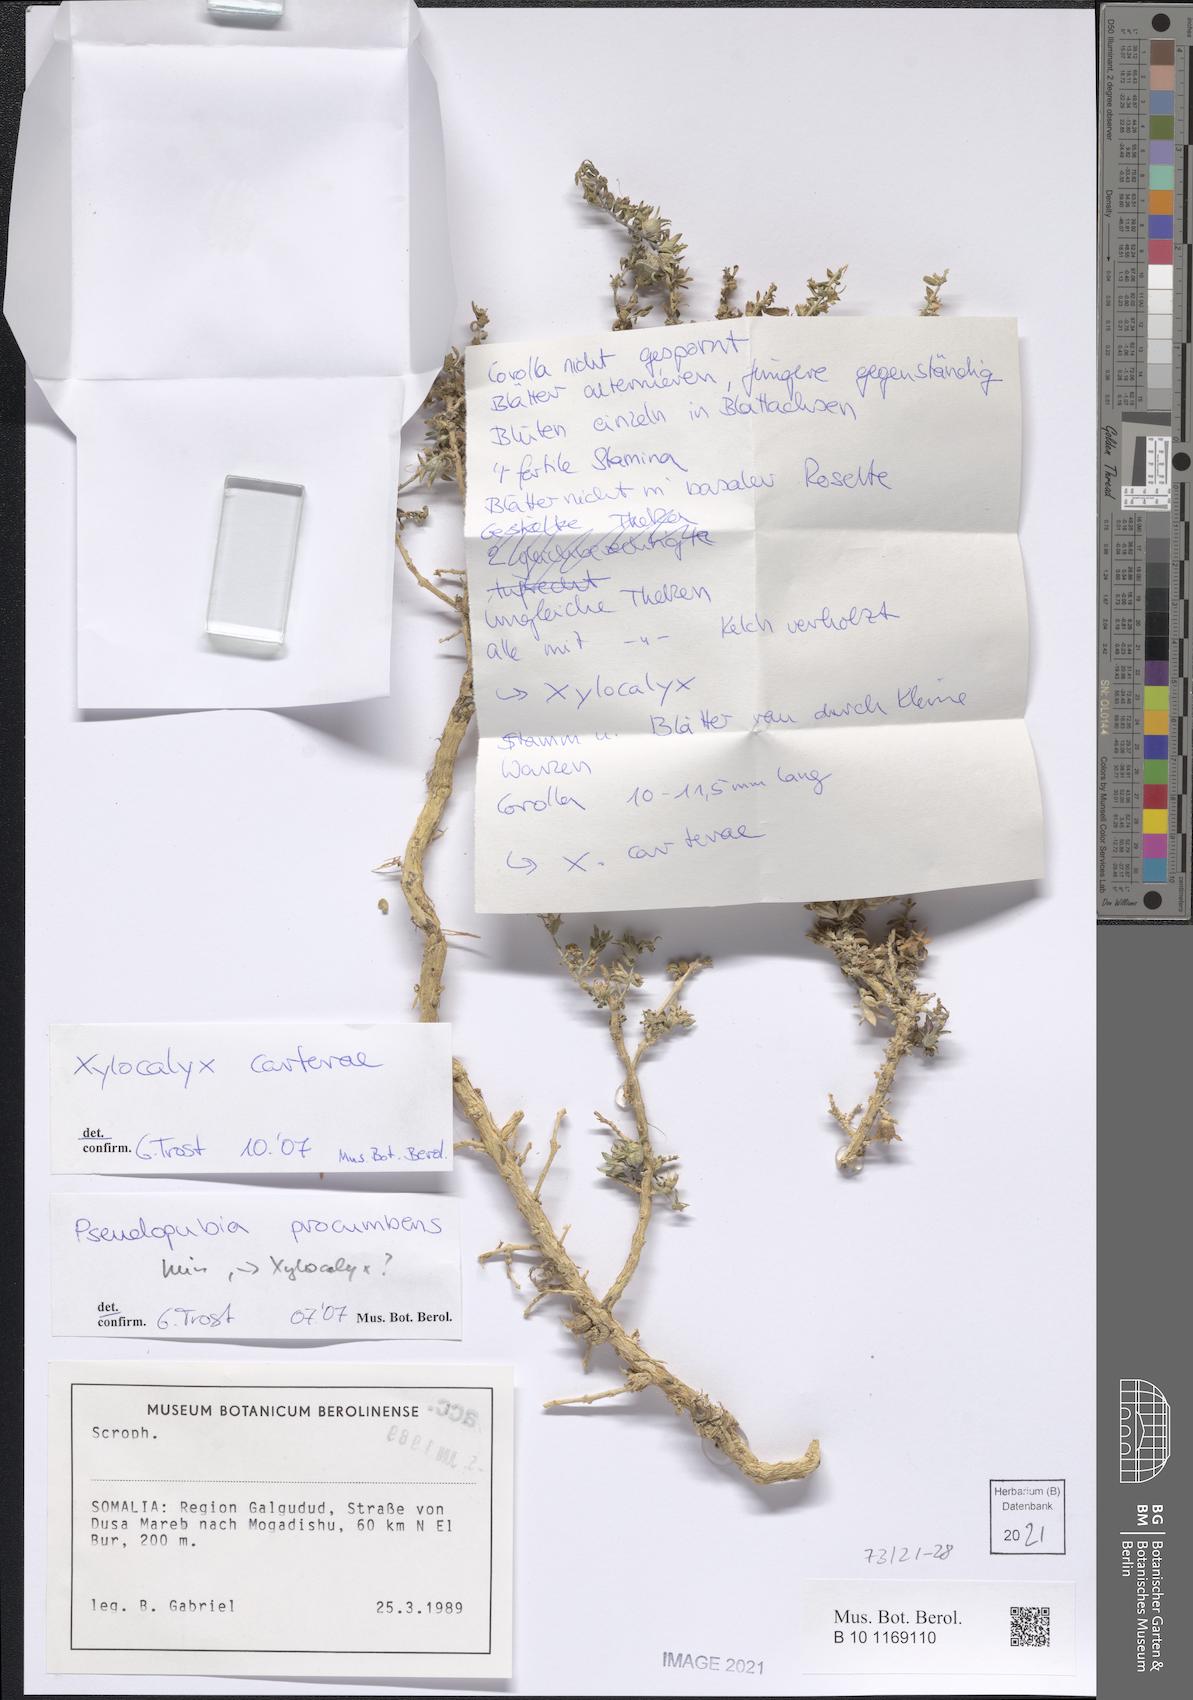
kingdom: Plantae
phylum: Tracheophyta
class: Magnoliopsida
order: Lamiales
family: Orobanchaceae
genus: Xylocalyx
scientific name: Xylocalyx carterae
